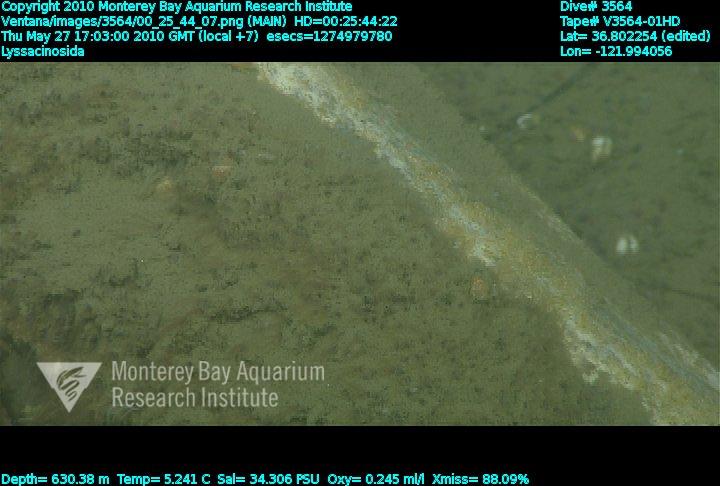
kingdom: Animalia
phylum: Porifera
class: Hexactinellida
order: Lyssacinosida
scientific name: Lyssacinosida
